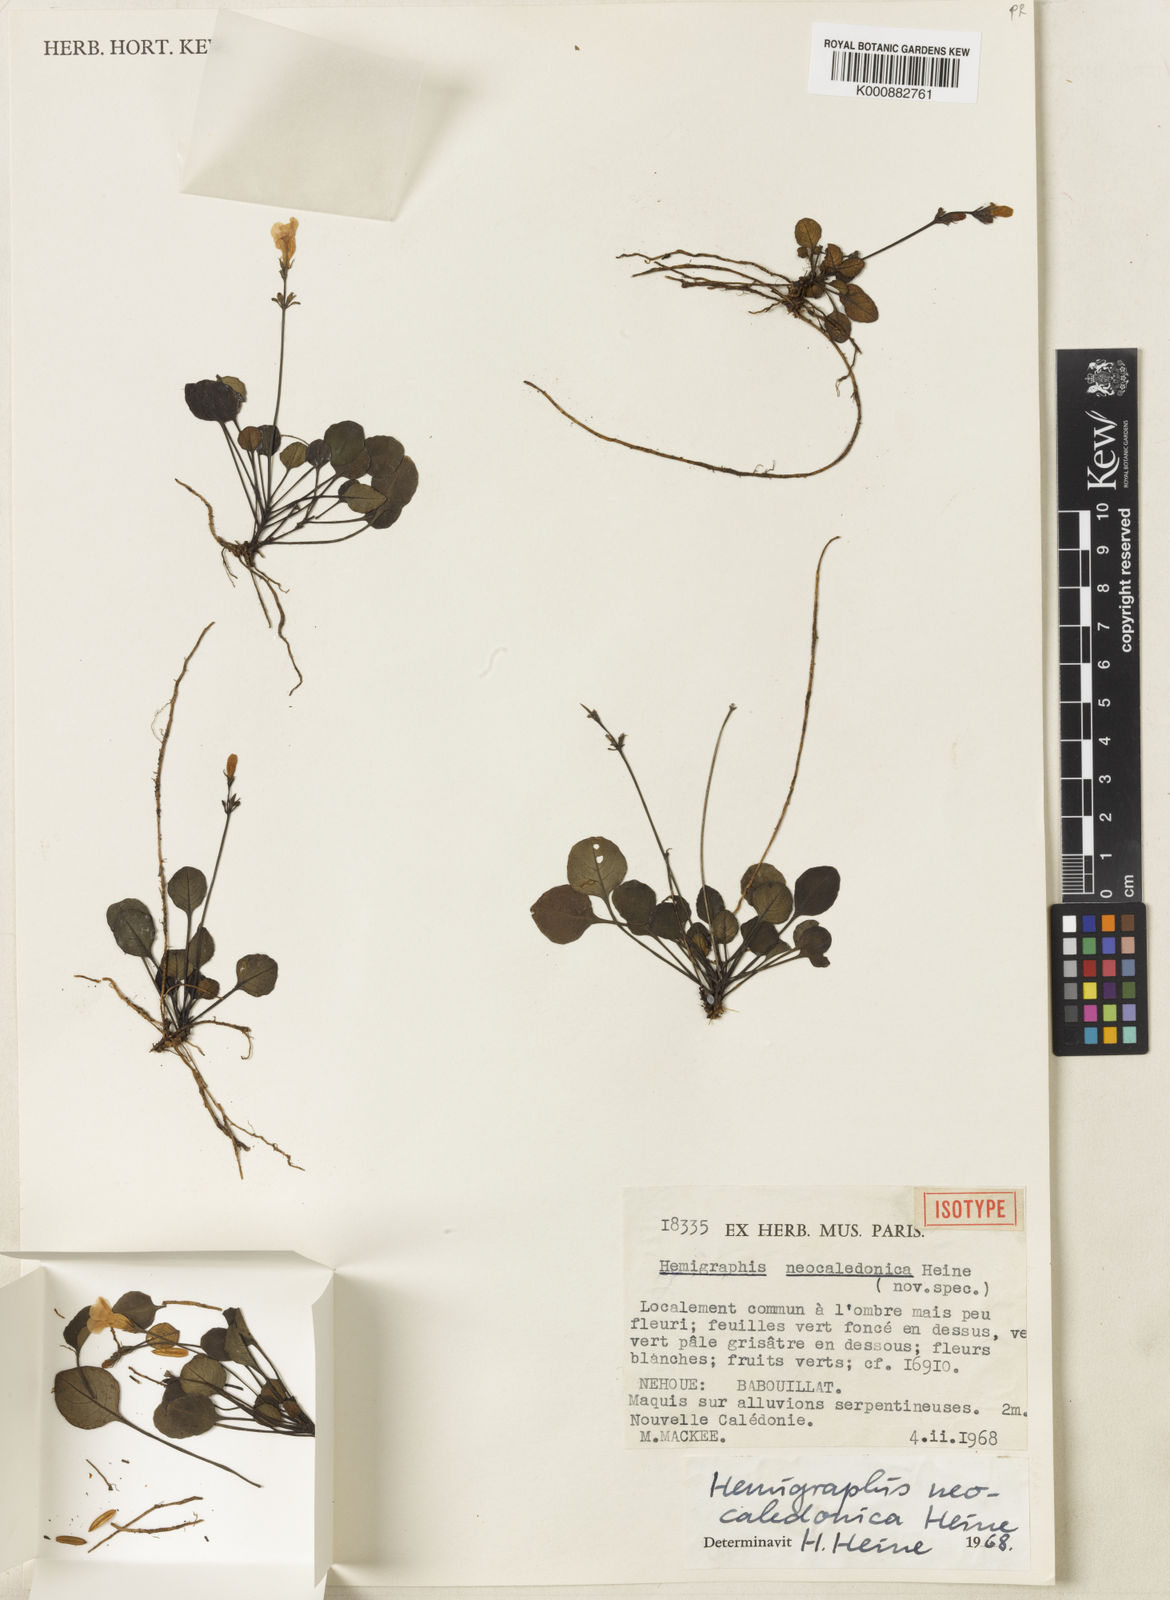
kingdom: Plantae
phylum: Tracheophyta
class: Magnoliopsida
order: Lamiales
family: Acanthaceae
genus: Brunoniella
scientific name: Brunoniella neocaledonica
